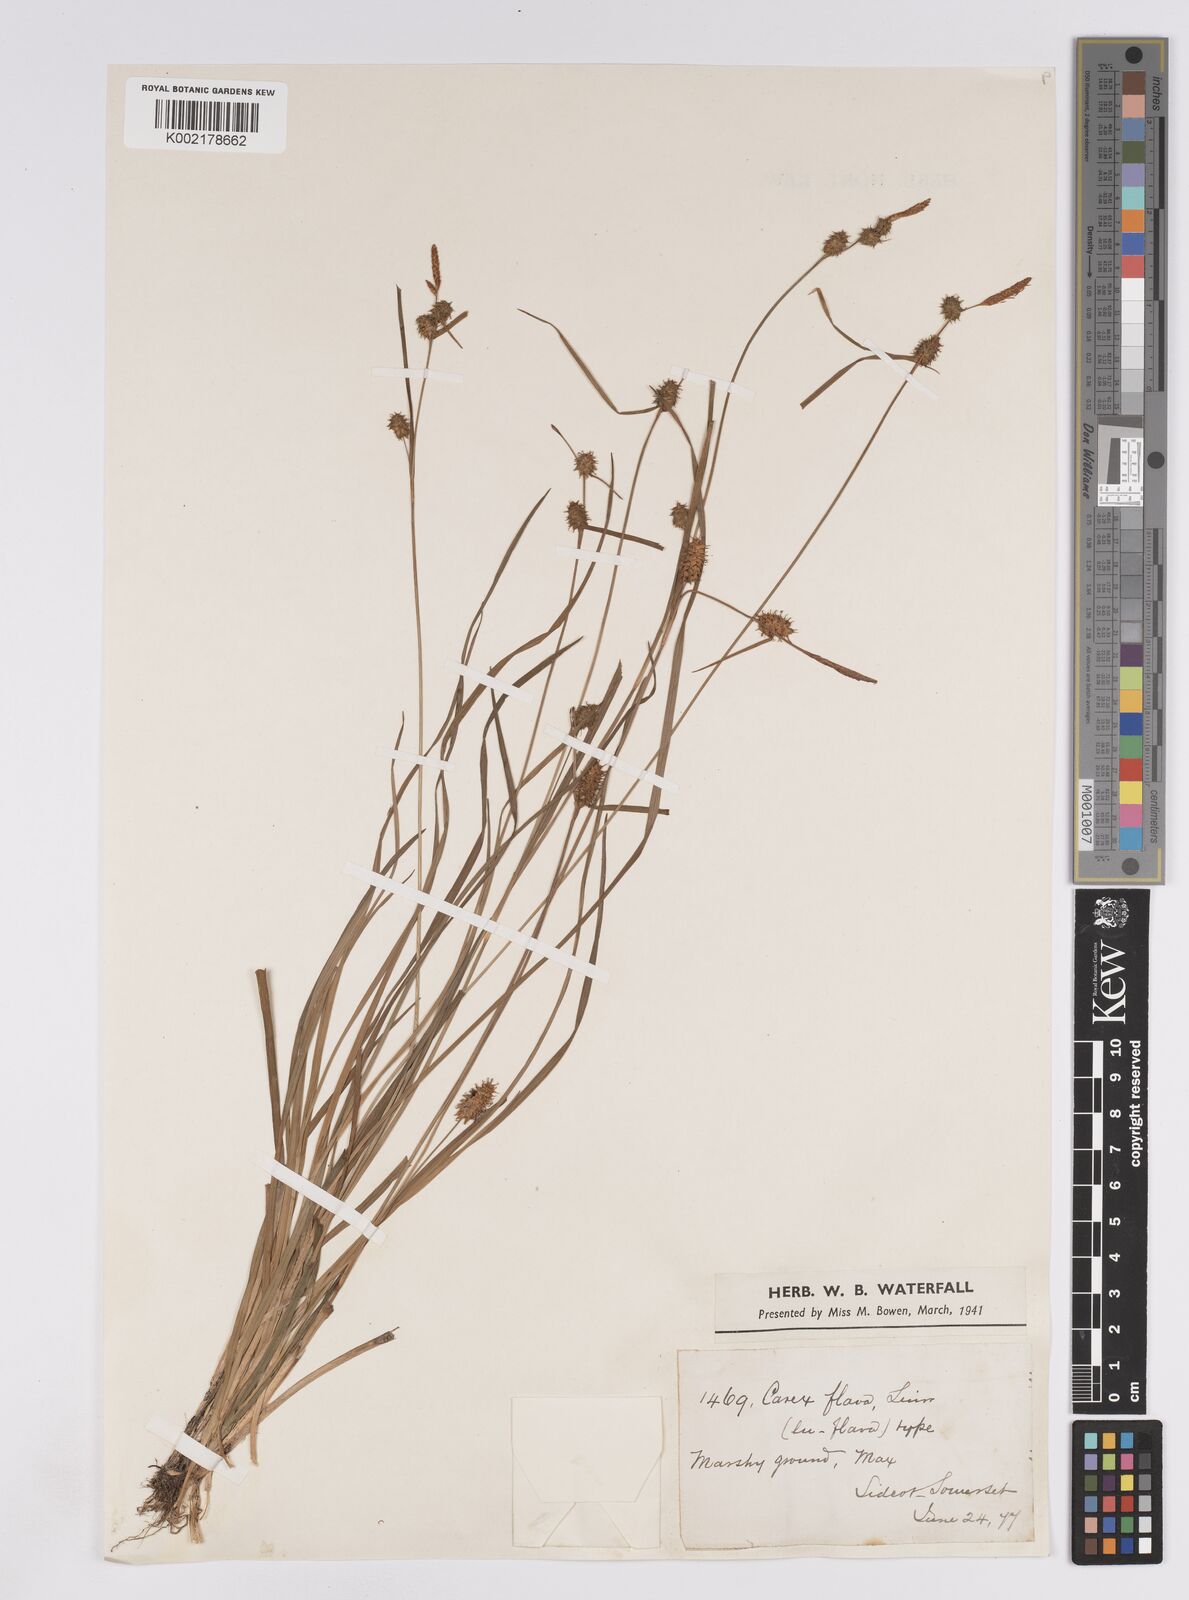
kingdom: Plantae
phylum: Tracheophyta
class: Liliopsida
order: Poales
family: Cyperaceae
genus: Carex
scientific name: Carex lepidocarpa
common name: Long-stalked yellow-sedge
